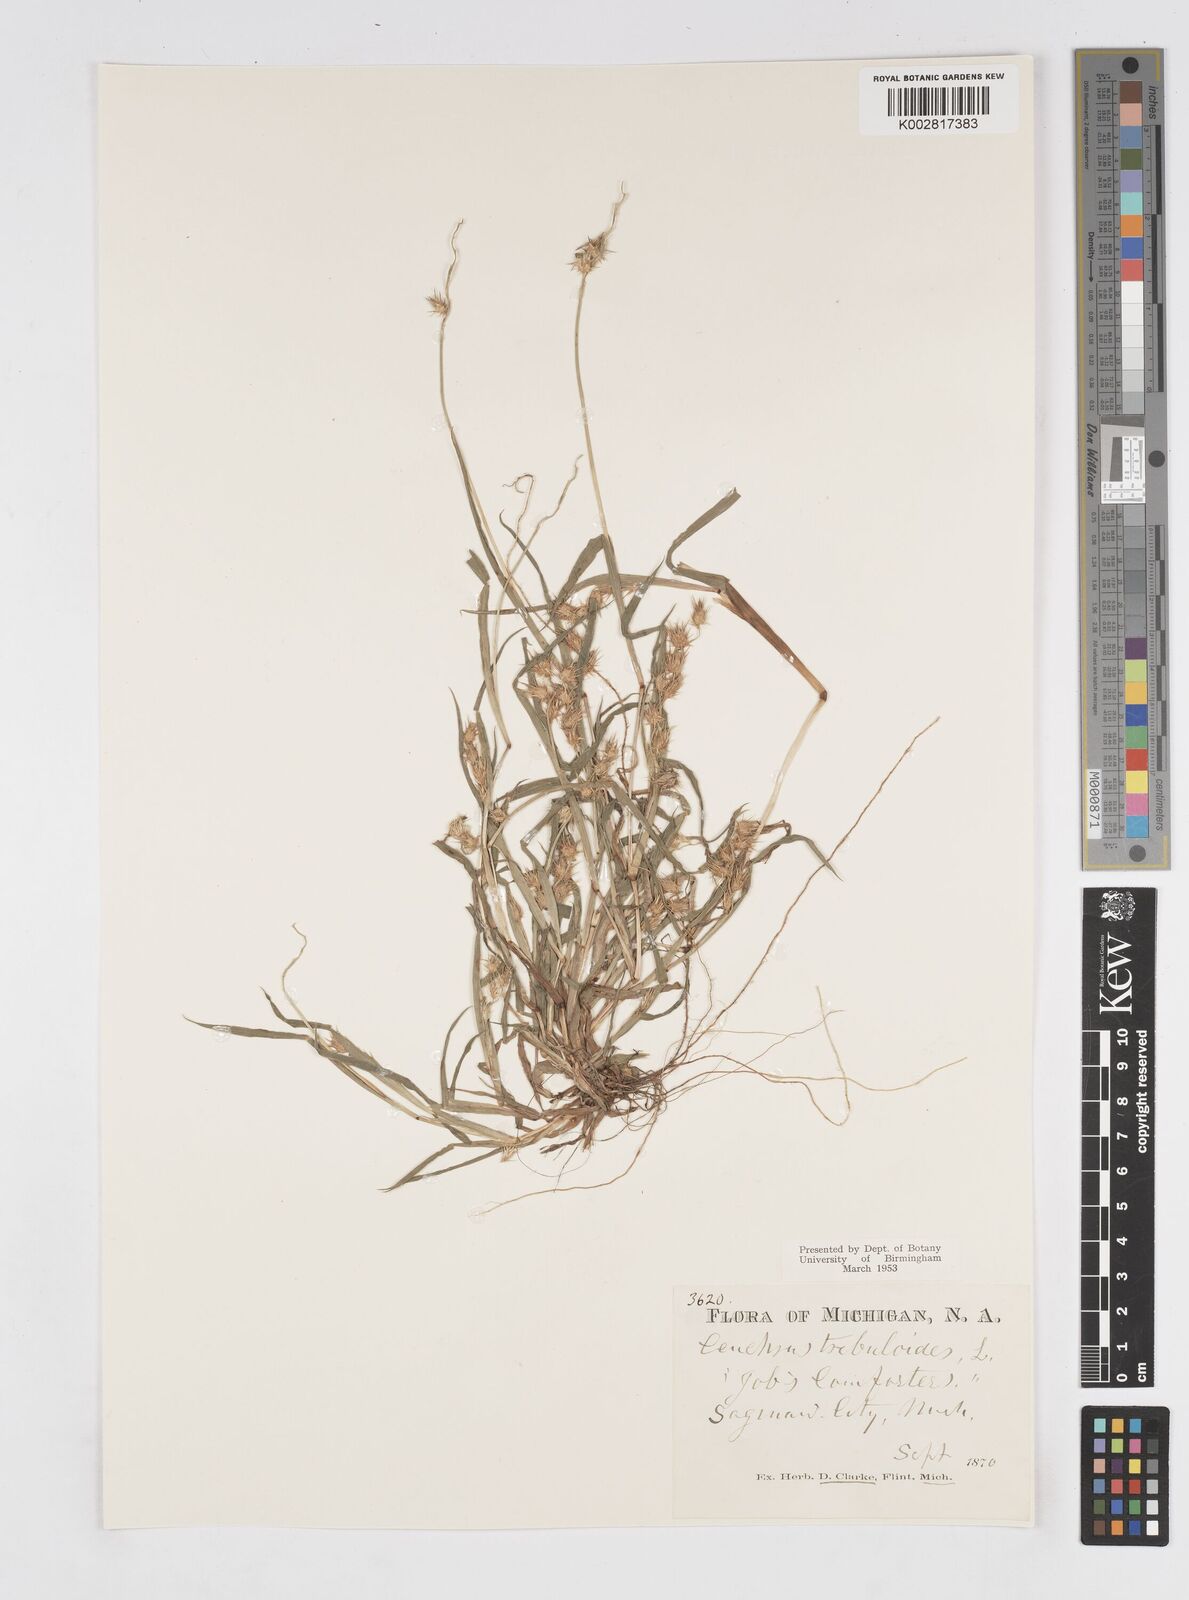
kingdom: Plantae
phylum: Tracheophyta
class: Liliopsida
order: Poales
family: Poaceae
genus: Cenchrus
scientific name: Cenchrus longispinus
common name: Mat sandbur
